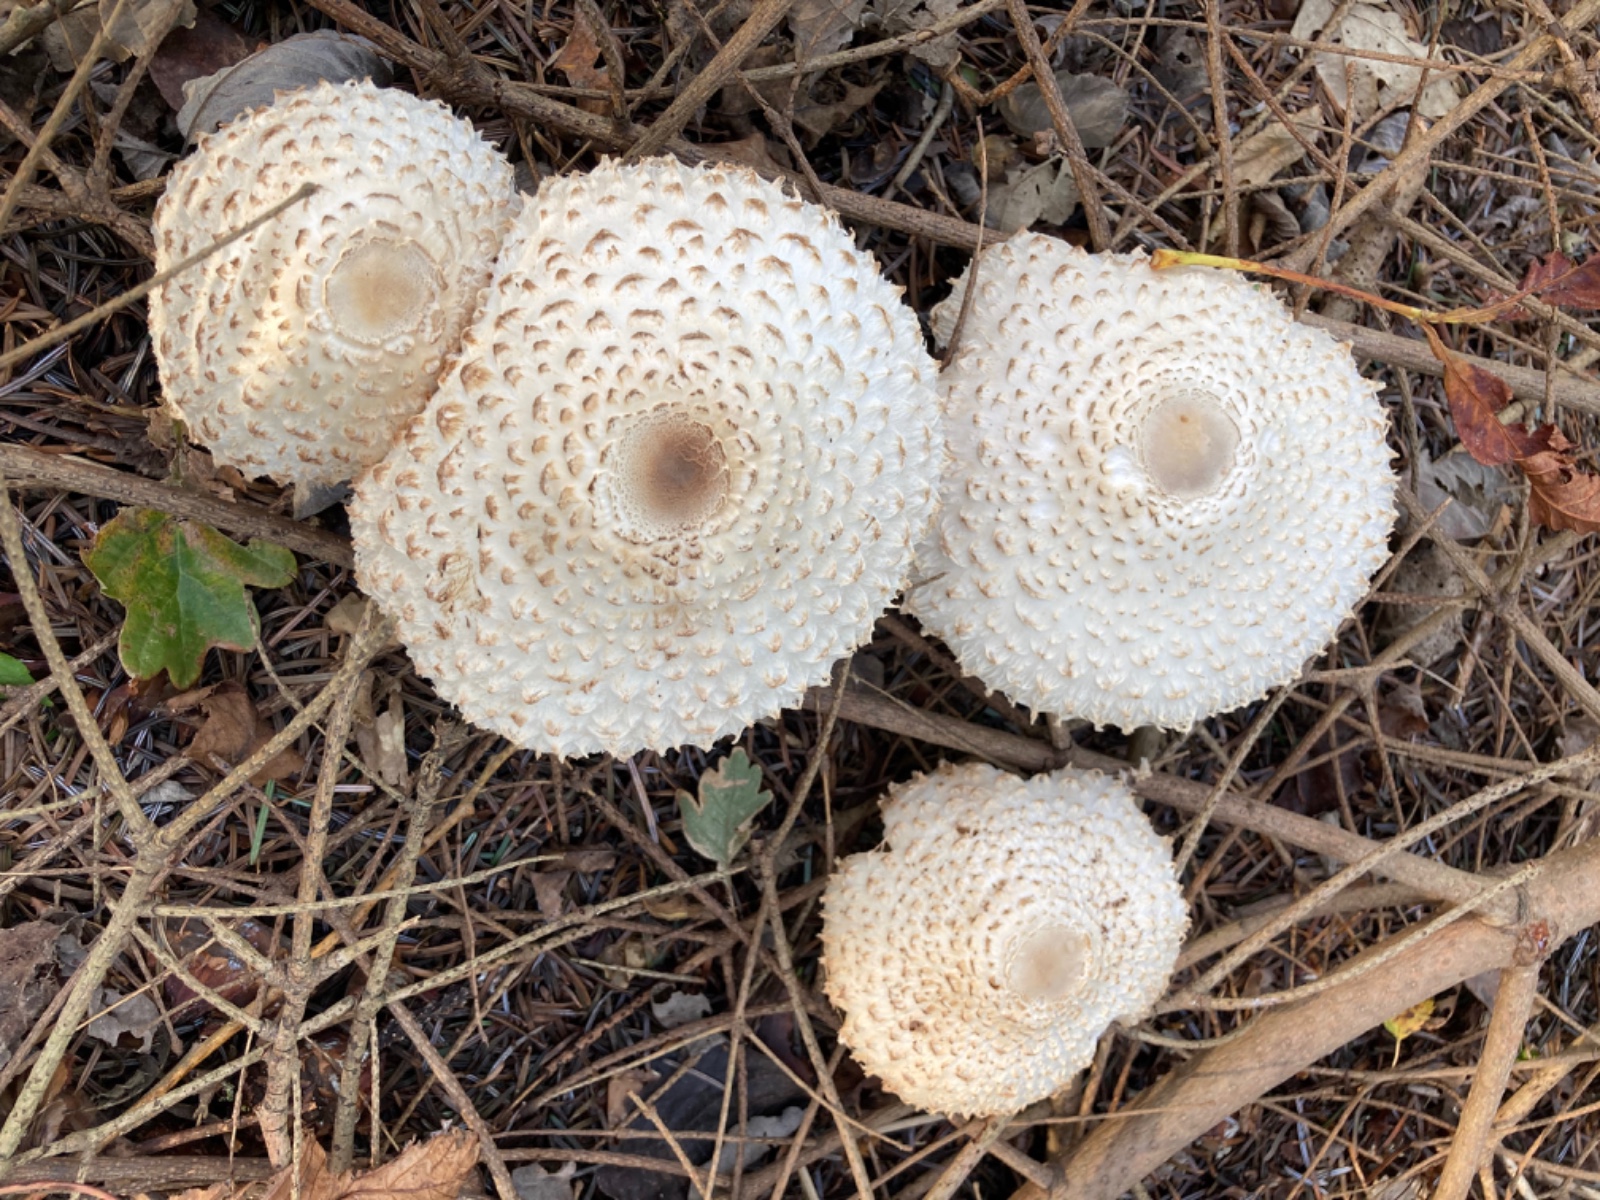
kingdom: Fungi
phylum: Basidiomycota
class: Agaricomycetes
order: Agaricales
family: Agaricaceae
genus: Leucoagaricus
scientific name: Leucoagaricus nympharum
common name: gran-silkehat
